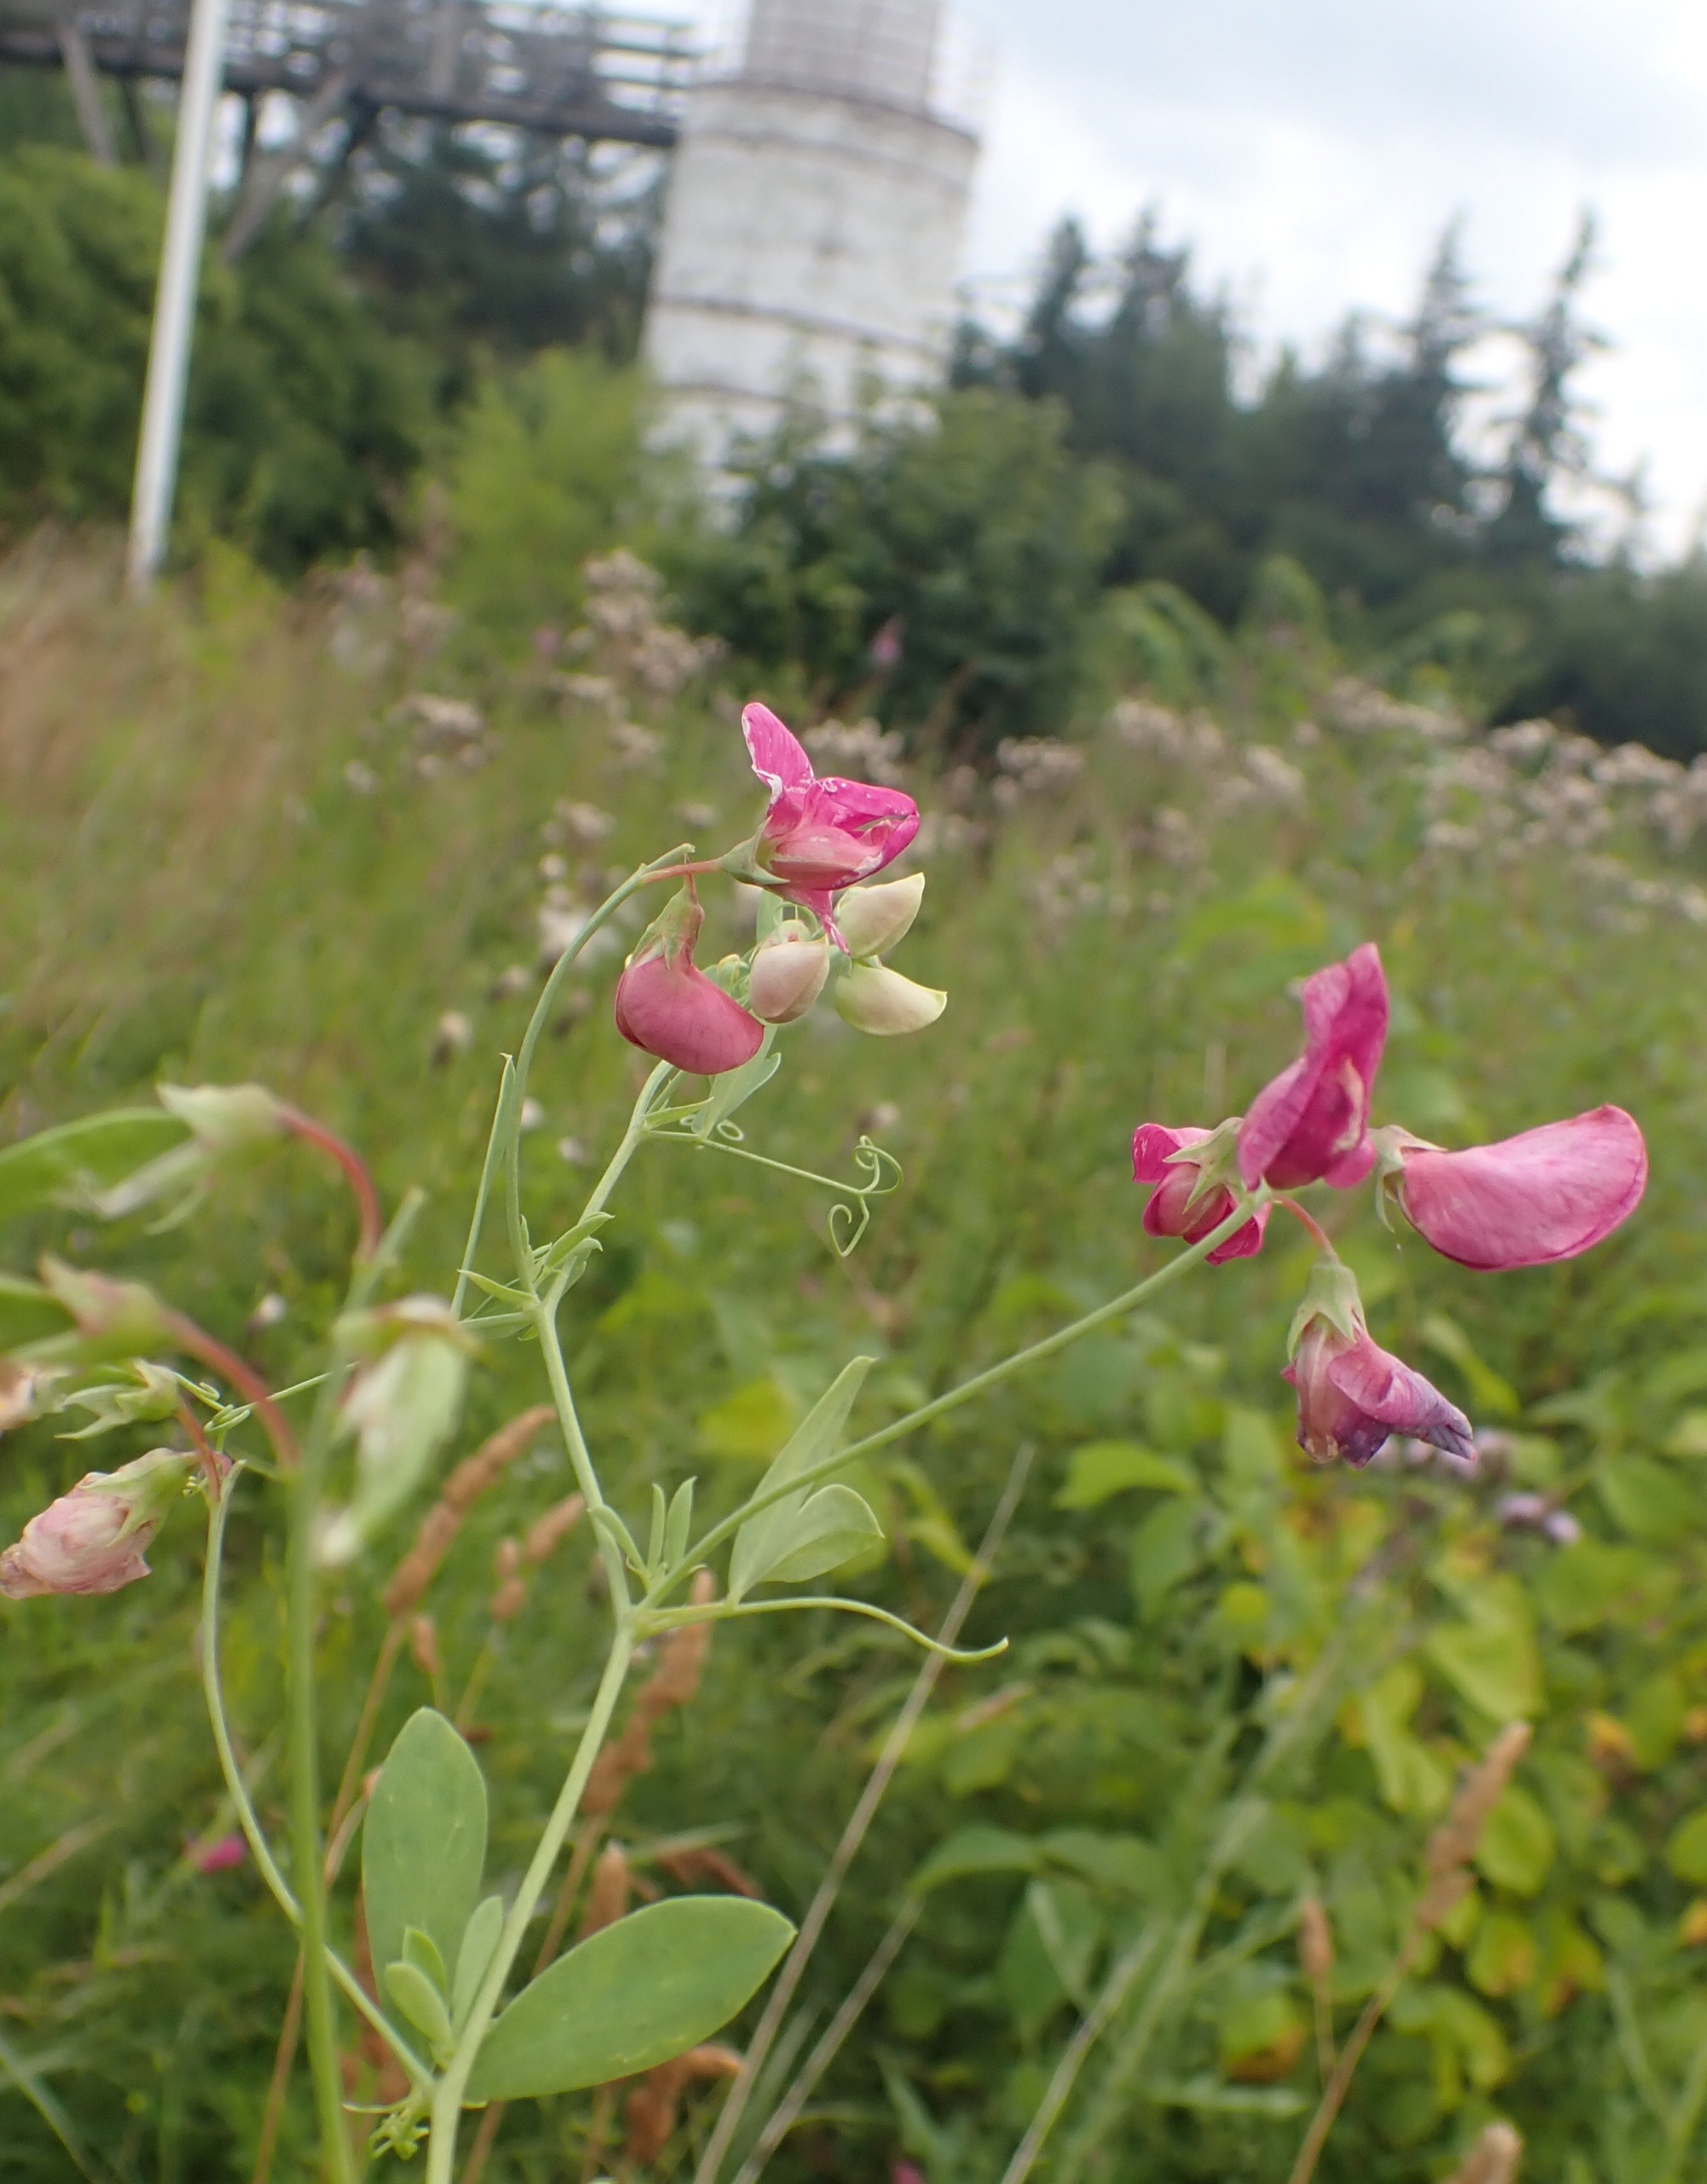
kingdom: Plantae
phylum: Tracheophyta
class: Magnoliopsida
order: Fabales
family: Fabaceae
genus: Lathyrus
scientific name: Lathyrus tuberosus
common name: Knold-fladbælg
